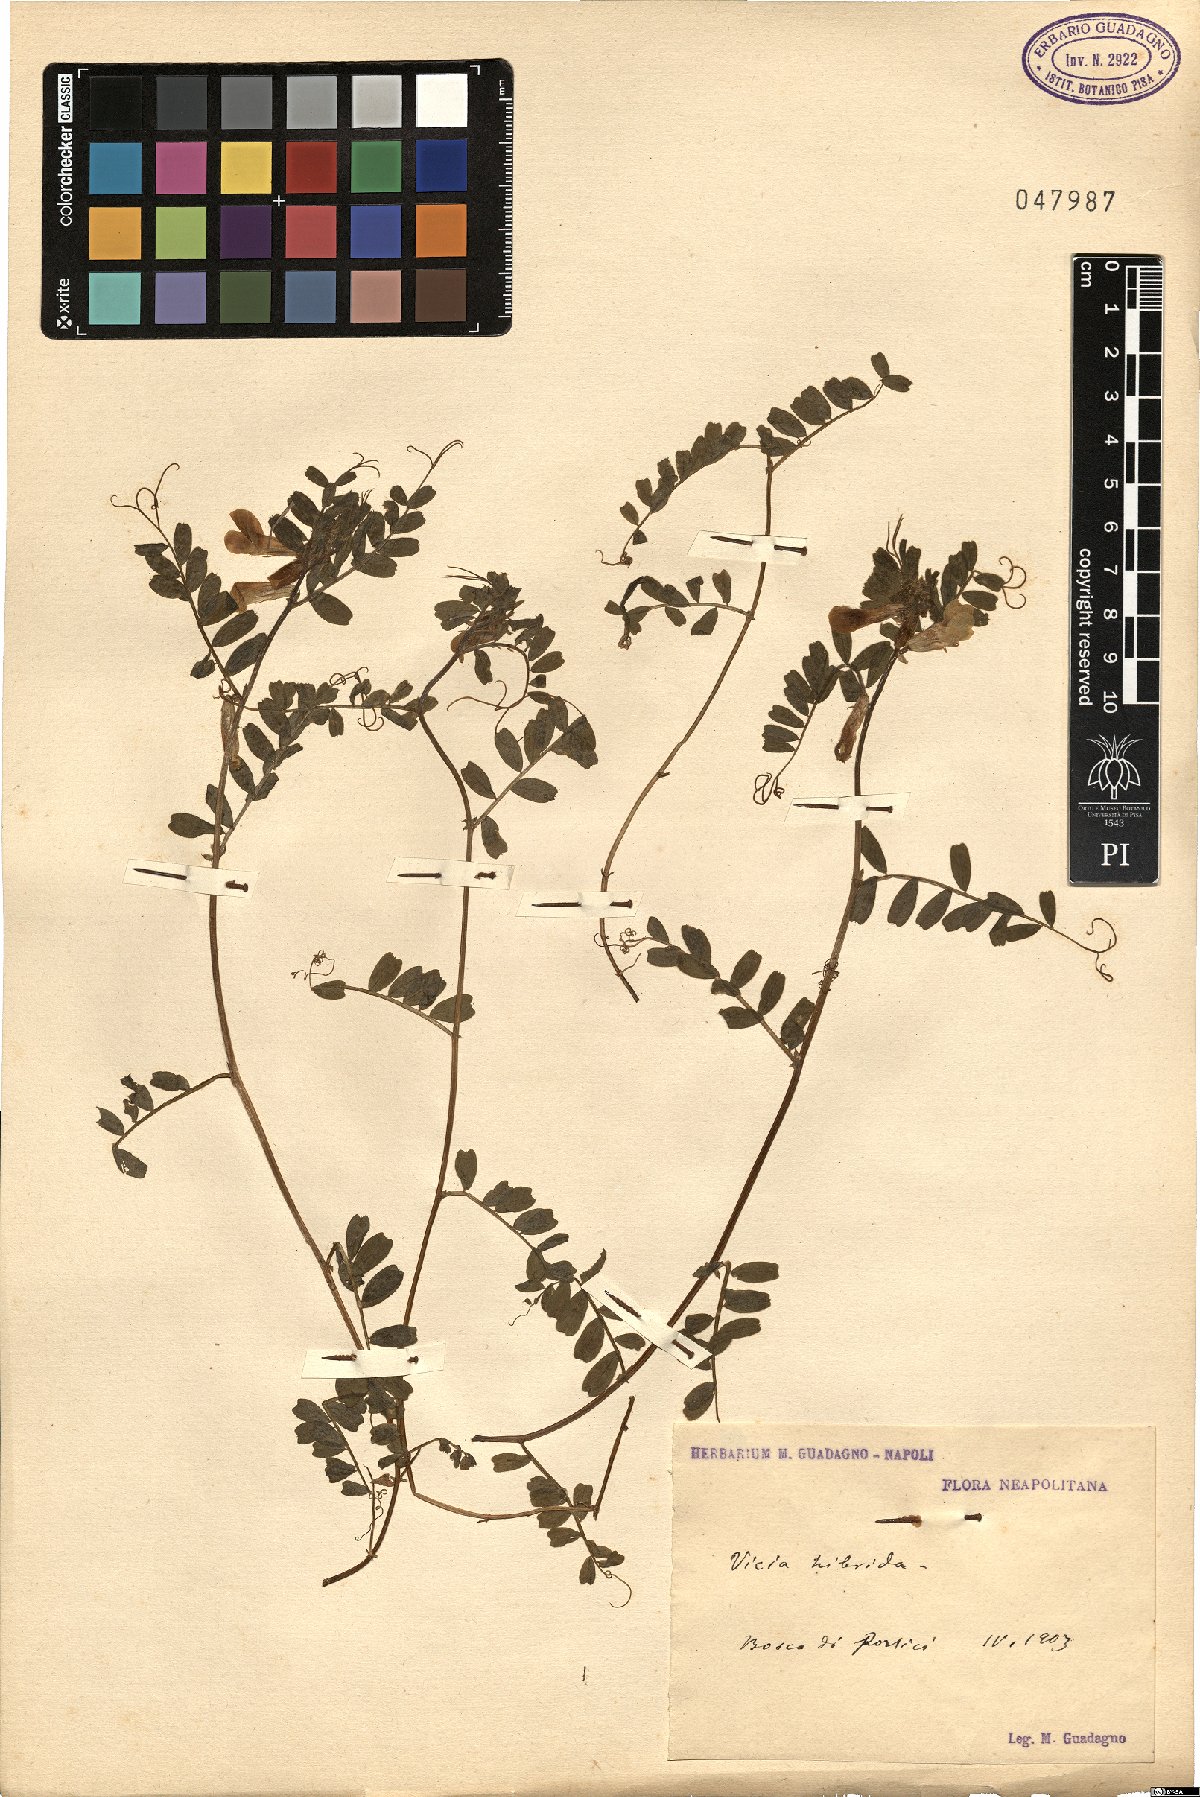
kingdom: Plantae
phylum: Tracheophyta
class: Magnoliopsida
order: Fabales
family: Fabaceae
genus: Vicia
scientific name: Vicia hybrida
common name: Hairy yellow vetch
